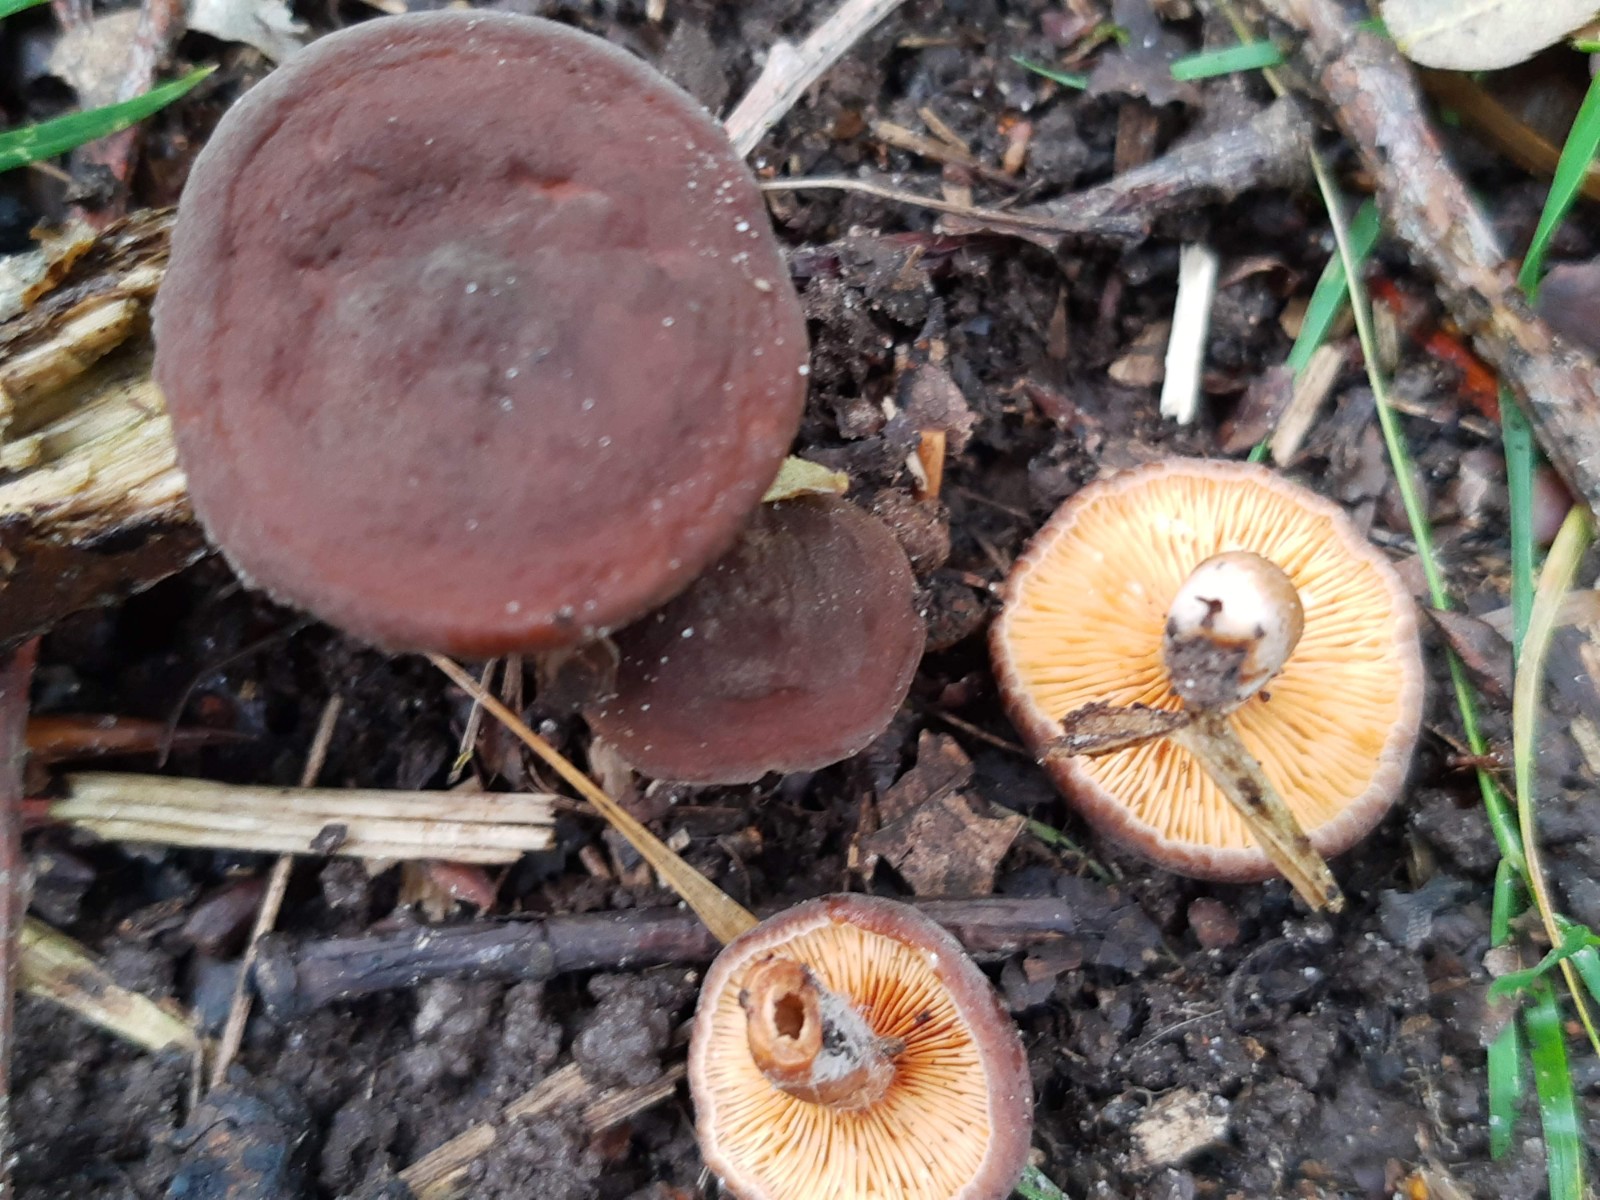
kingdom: Fungi
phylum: Basidiomycota
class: Agaricomycetes
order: Russulales
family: Russulaceae
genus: Lactarius
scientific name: Lactarius serifluus
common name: tæge-mælkehat
